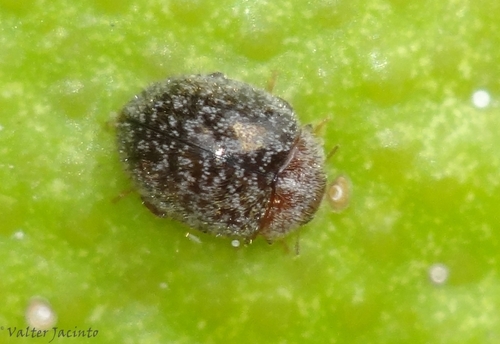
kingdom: Animalia
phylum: Arthropoda
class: Insecta
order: Coleoptera
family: Coccinellidae
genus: Rhyzobius
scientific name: Rhyzobius lophanthae
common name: Scale-eating ladybird beetle
